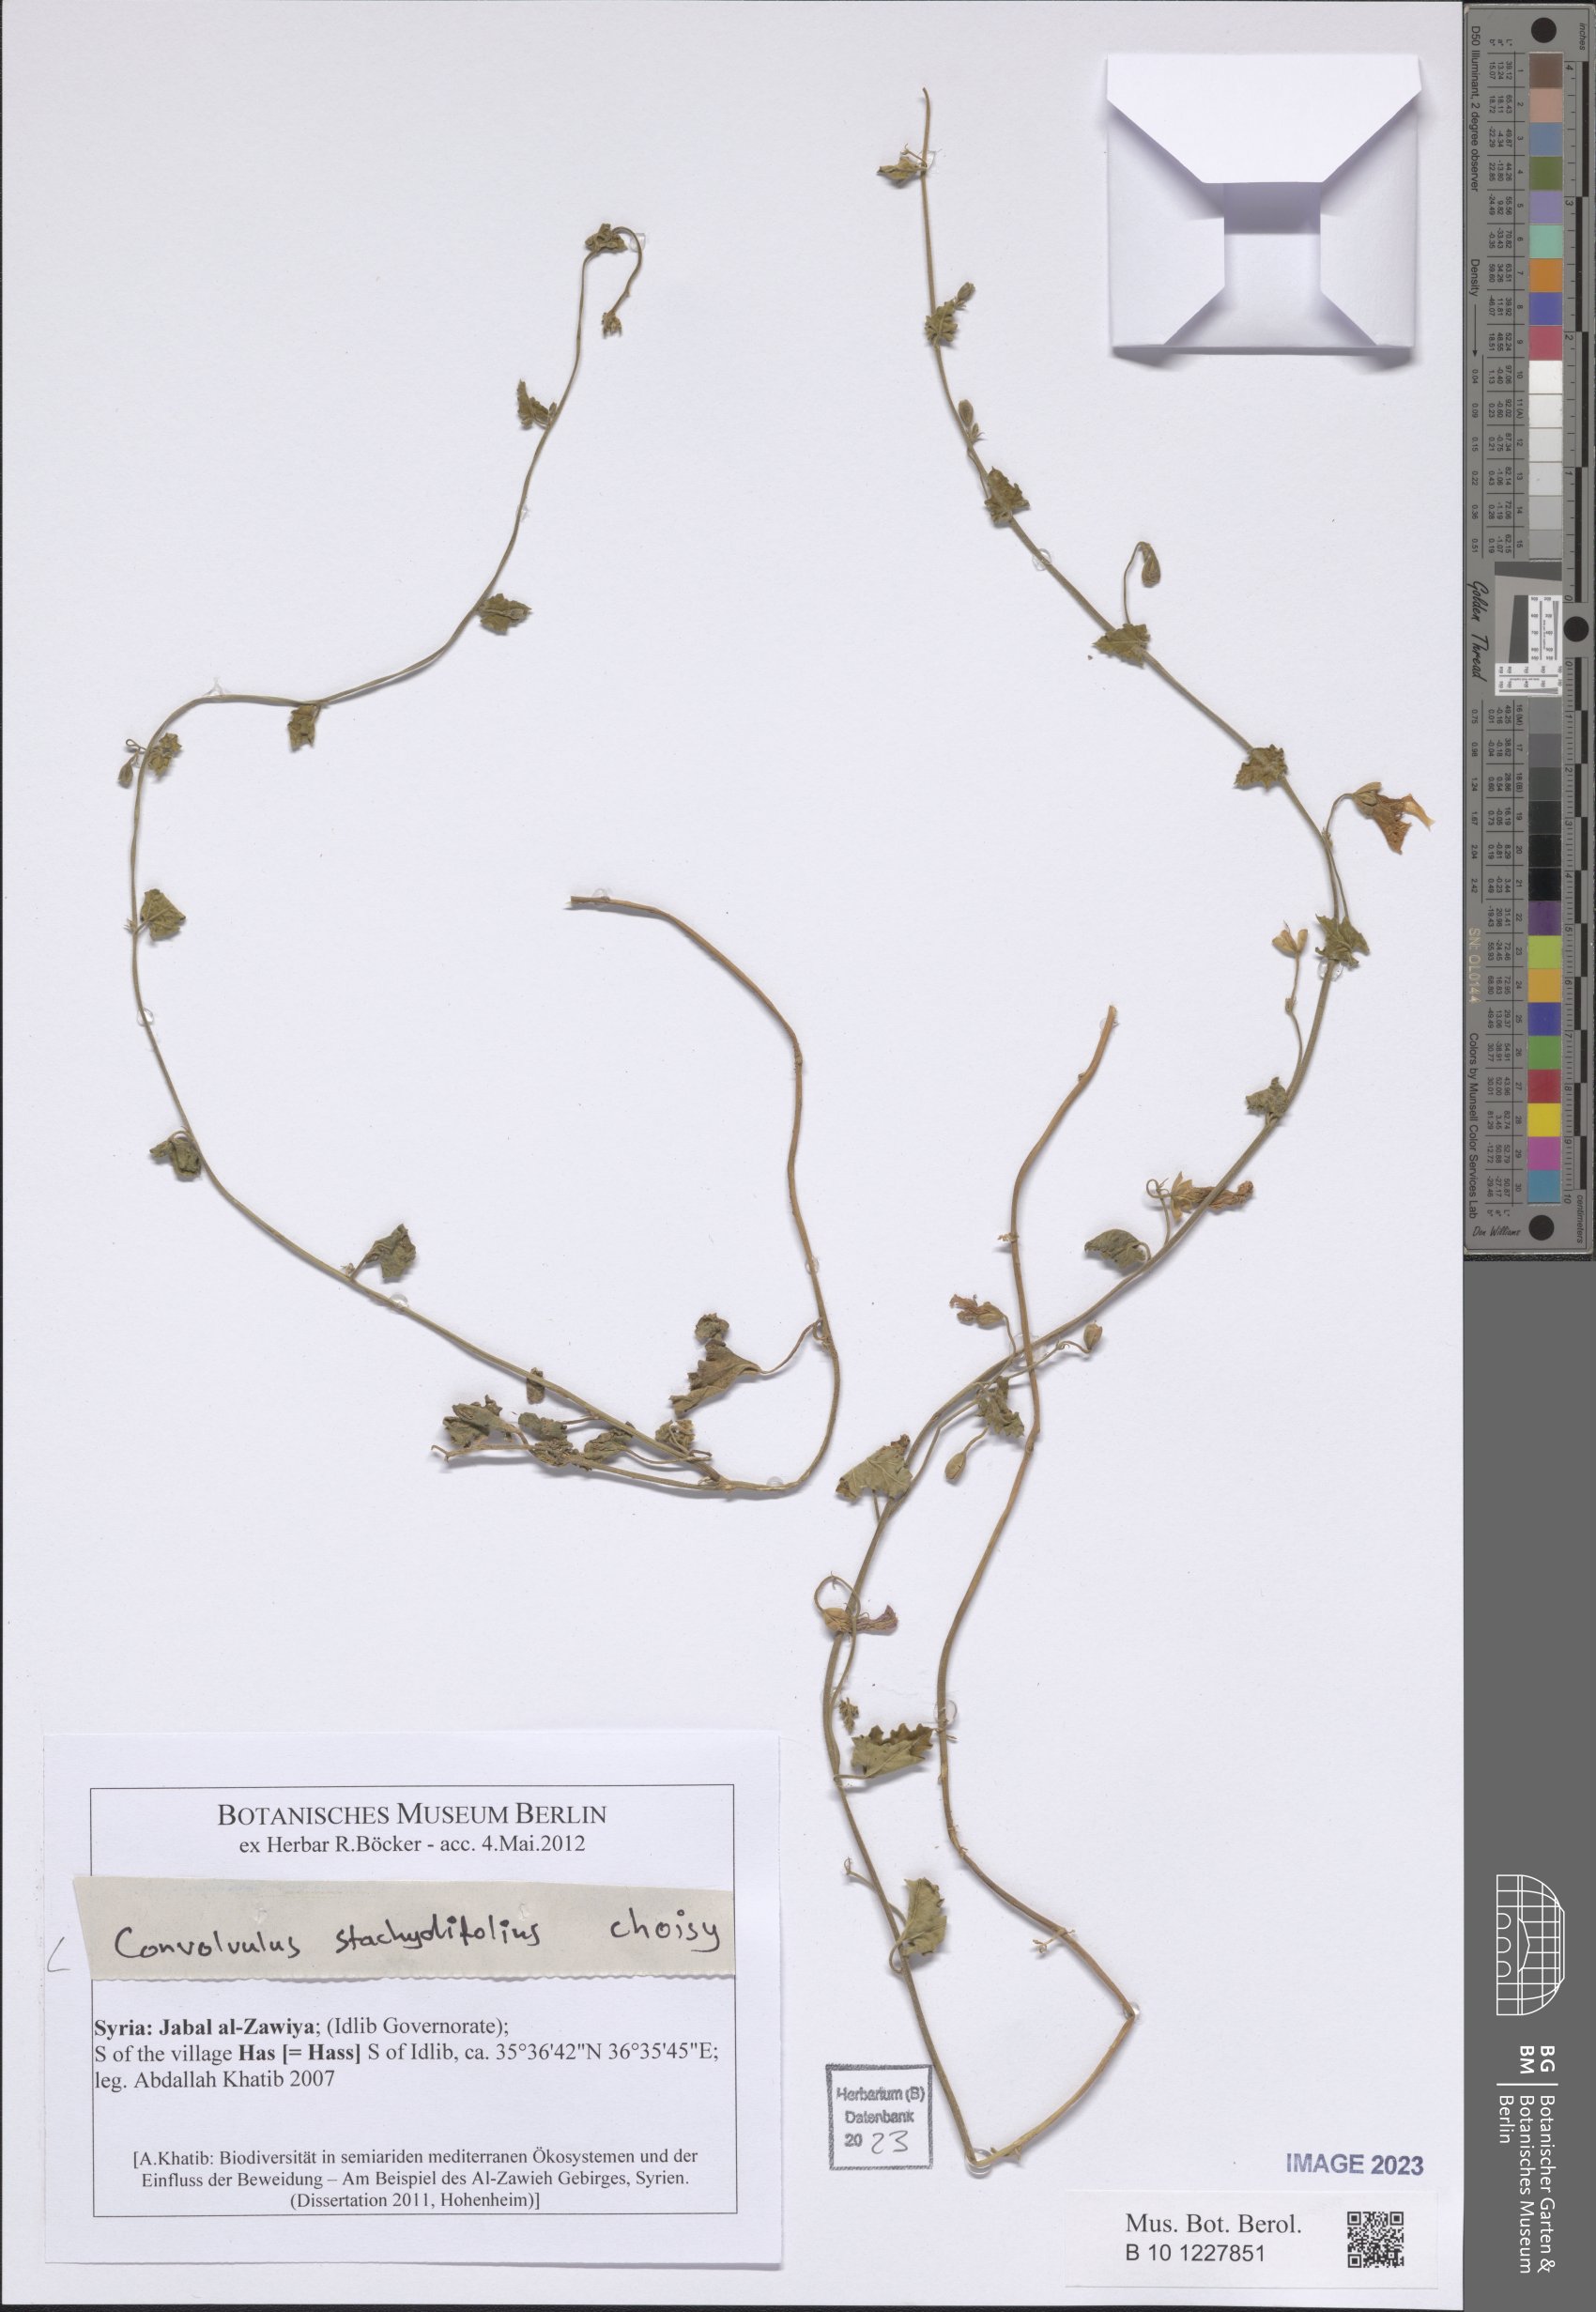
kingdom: Plantae
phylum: Tracheophyta
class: Magnoliopsida
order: Solanales
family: Convolvulaceae
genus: Convolvulus
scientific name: Convolvulus stachydifolius
